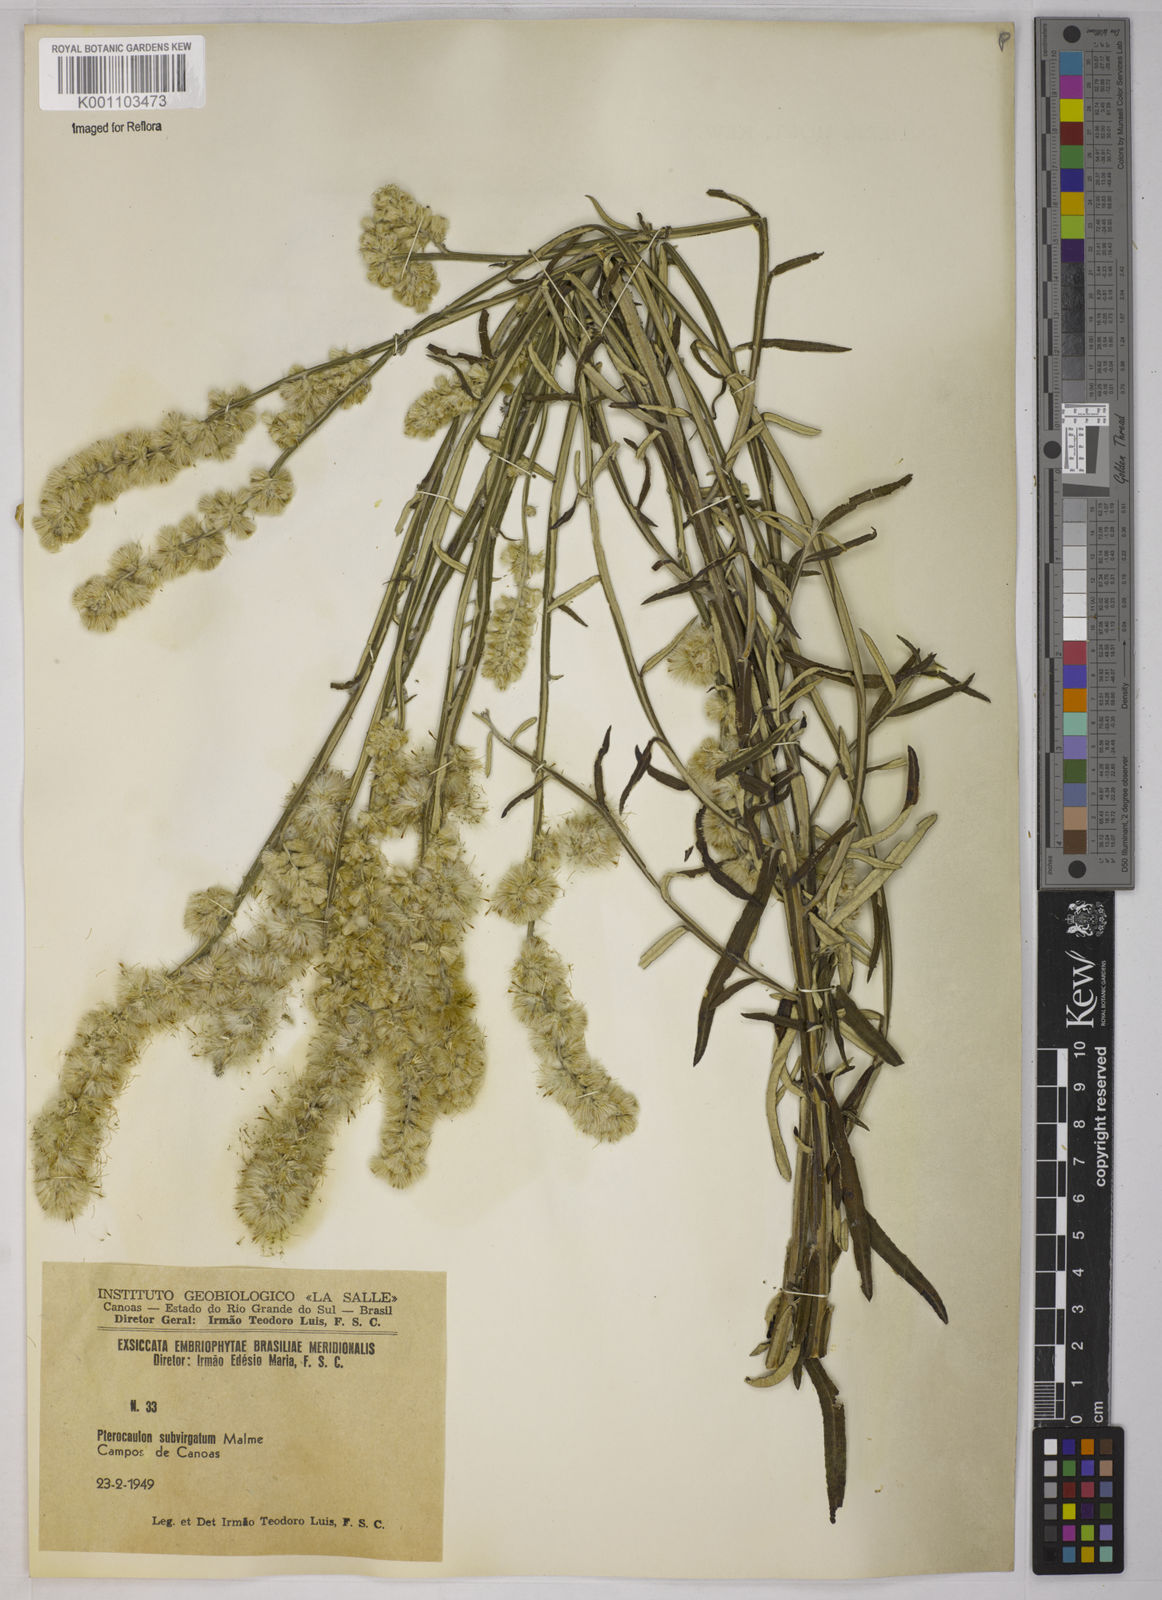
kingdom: Plantae
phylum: Tracheophyta
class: Magnoliopsida
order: Asterales
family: Asteraceae
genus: Pterocaulon
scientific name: Pterocaulon virgatum
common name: Wand blackroot
